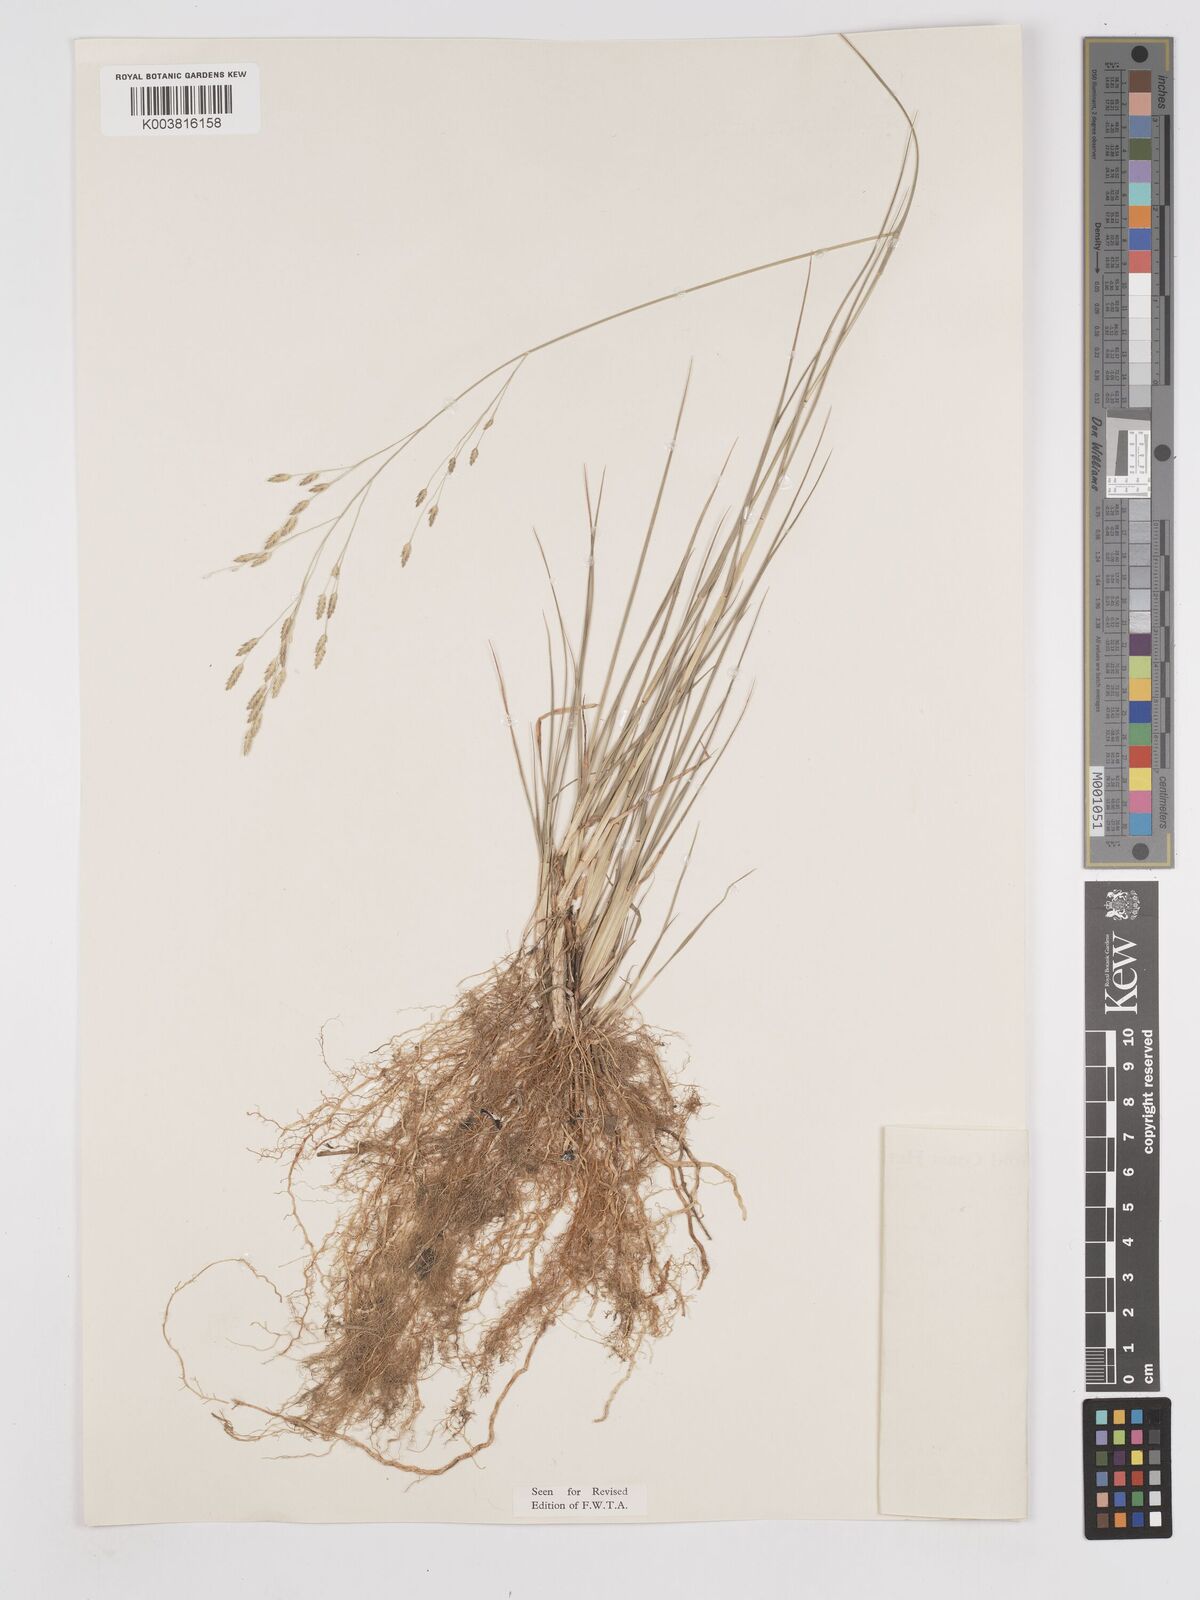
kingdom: Plantae
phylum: Tracheophyta
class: Liliopsida
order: Poales
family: Poaceae
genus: Eragrostis
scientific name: Eragrostis barteri
